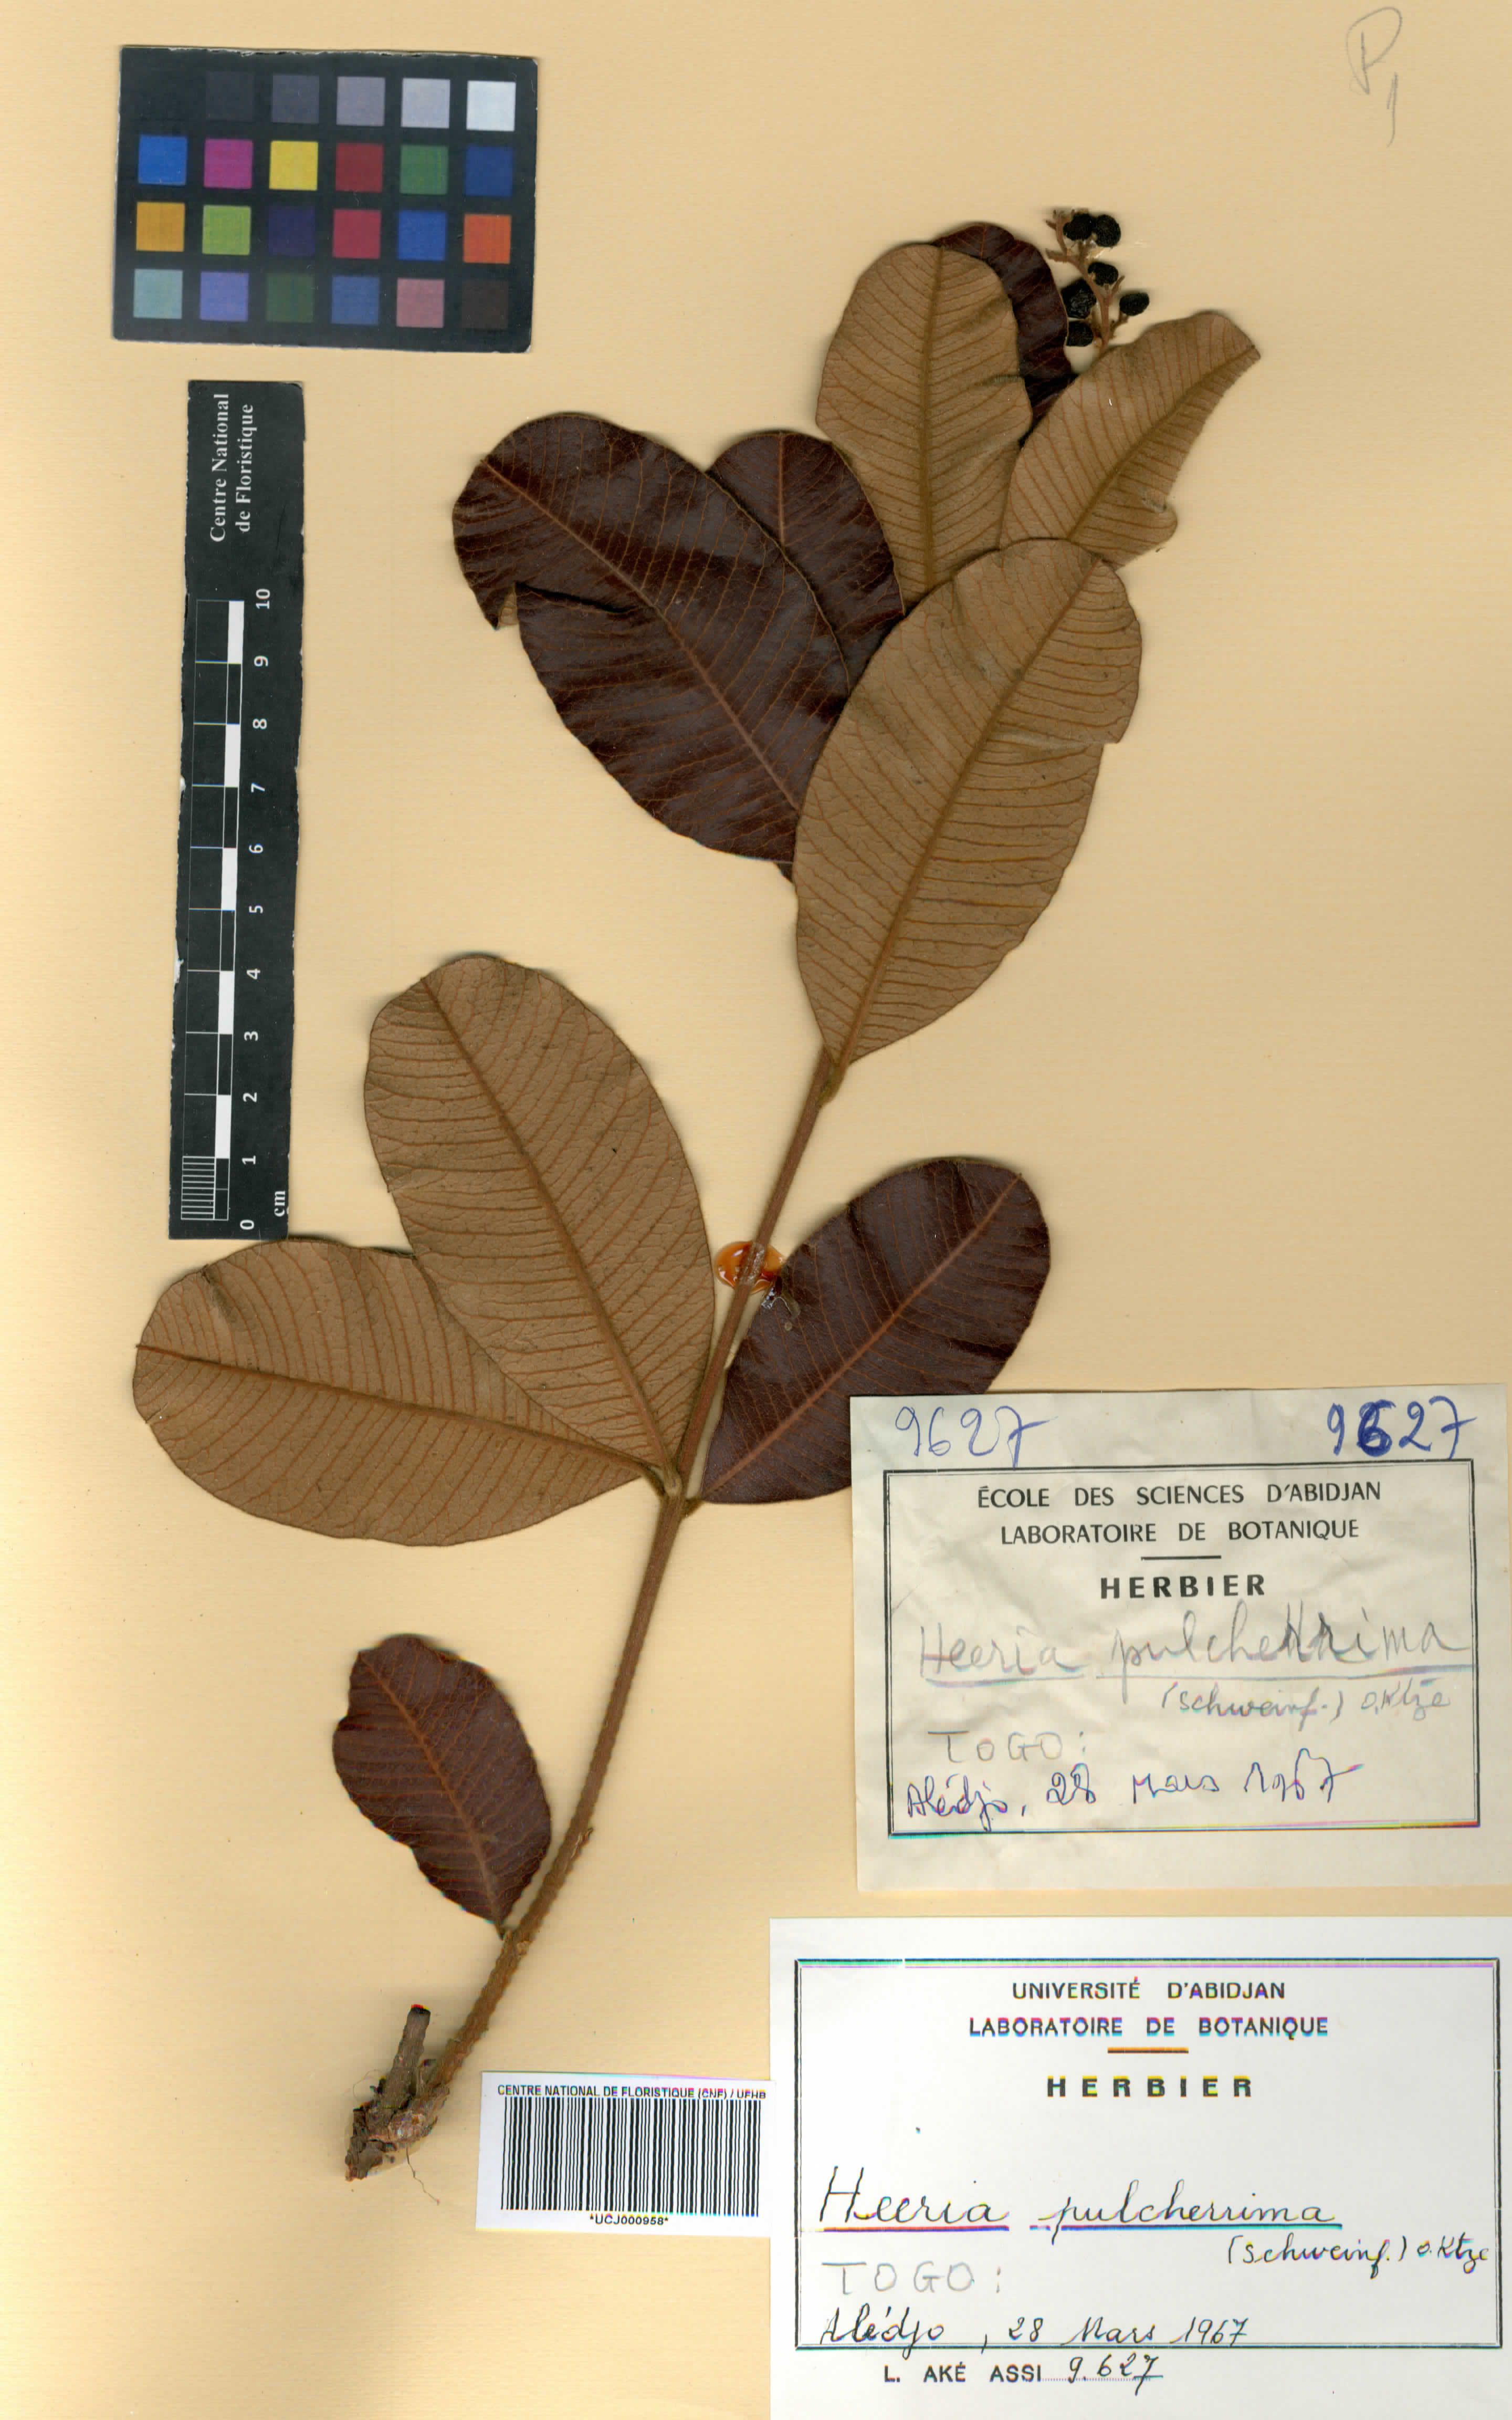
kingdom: Plantae
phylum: Tracheophyta
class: Magnoliopsida
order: Sapindales
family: Anacardiaceae
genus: Ozoroa
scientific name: Ozoroa pulcherrima
